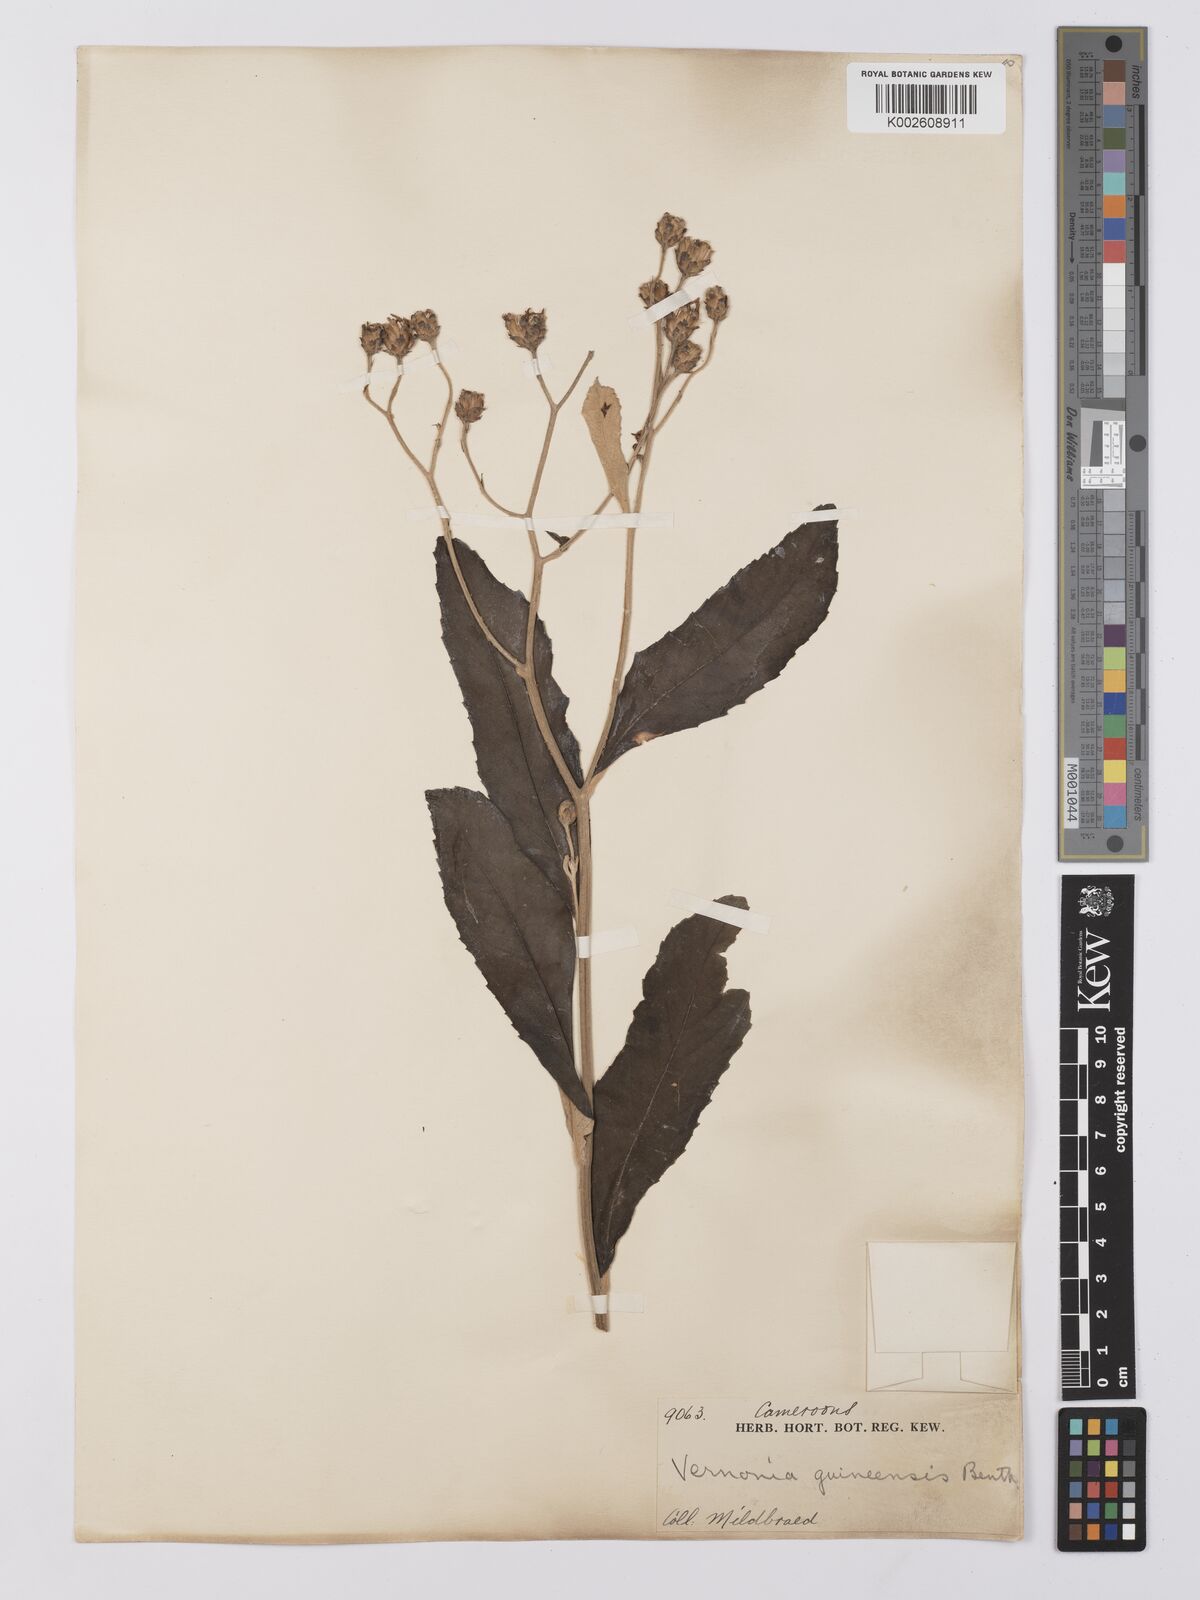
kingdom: Plantae
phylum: Tracheophyta
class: Magnoliopsida
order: Asterales
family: Asteraceae
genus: Baccharoides
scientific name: Baccharoides guineensis
